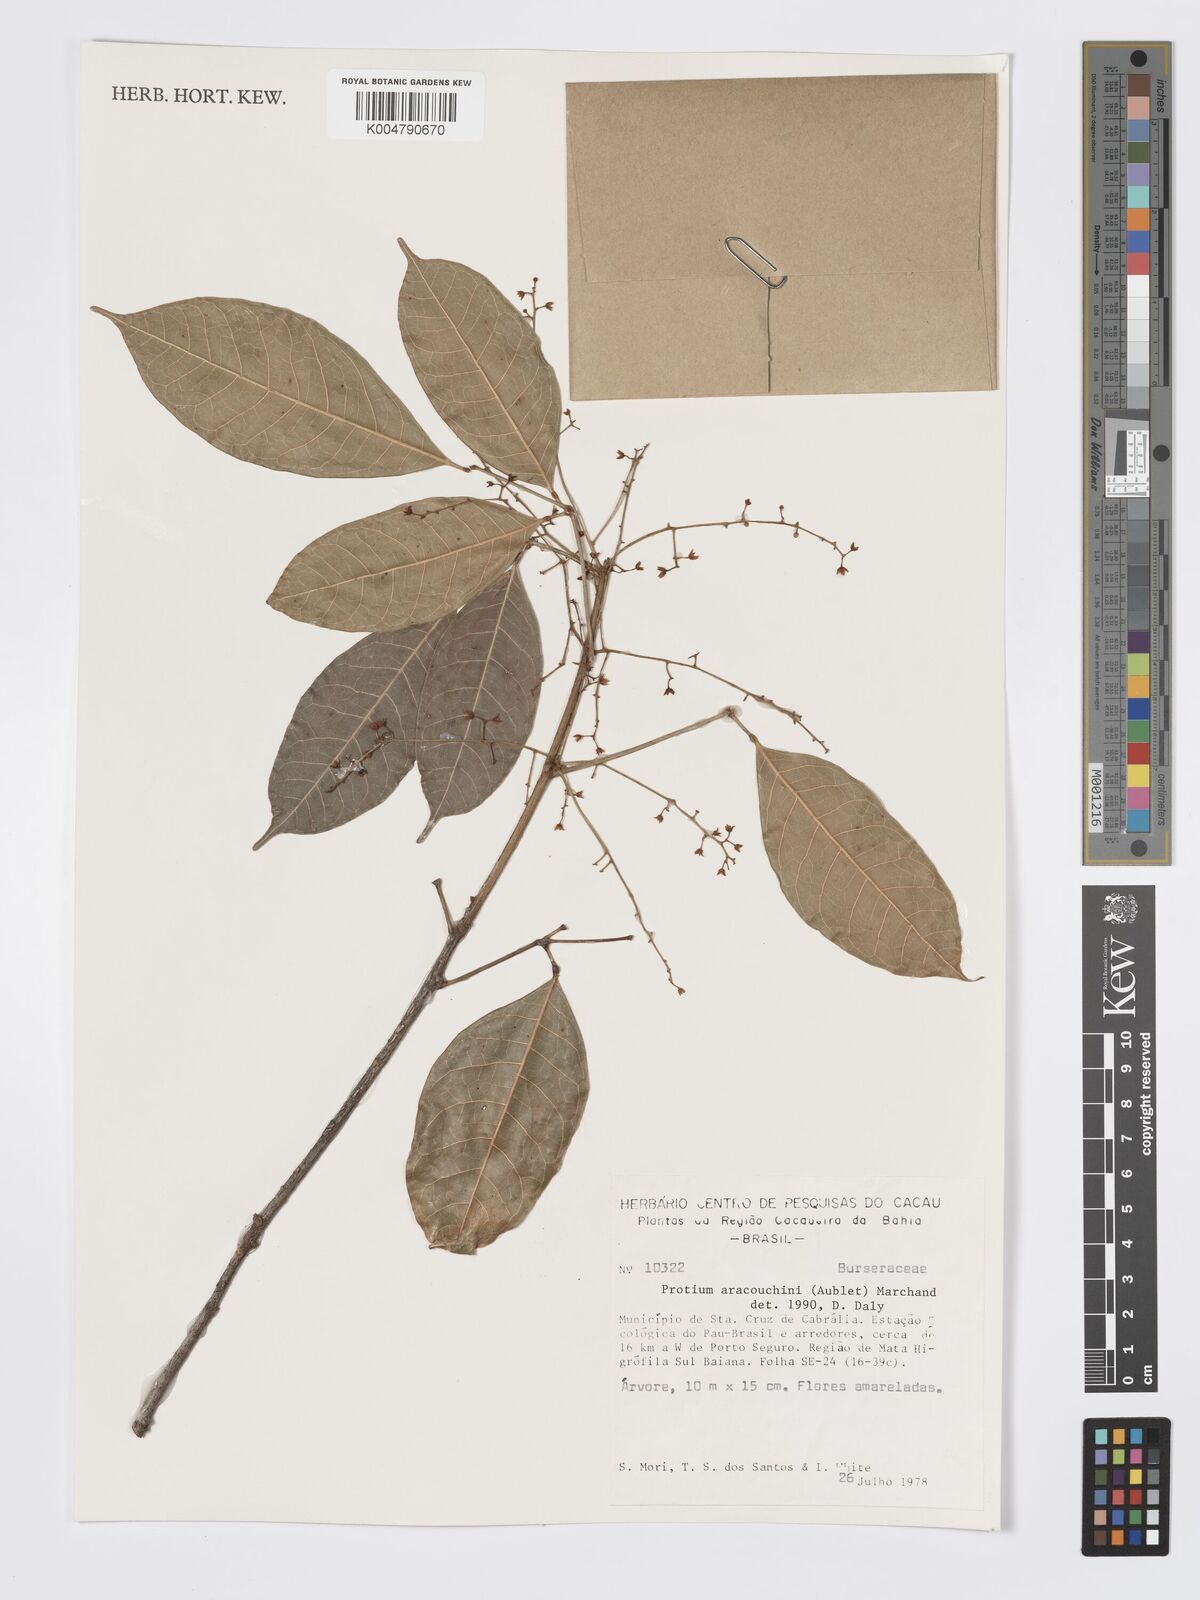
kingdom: Plantae
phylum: Tracheophyta
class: Magnoliopsida
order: Sapindales
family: Burseraceae
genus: Protium
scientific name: Protium aracouchini
